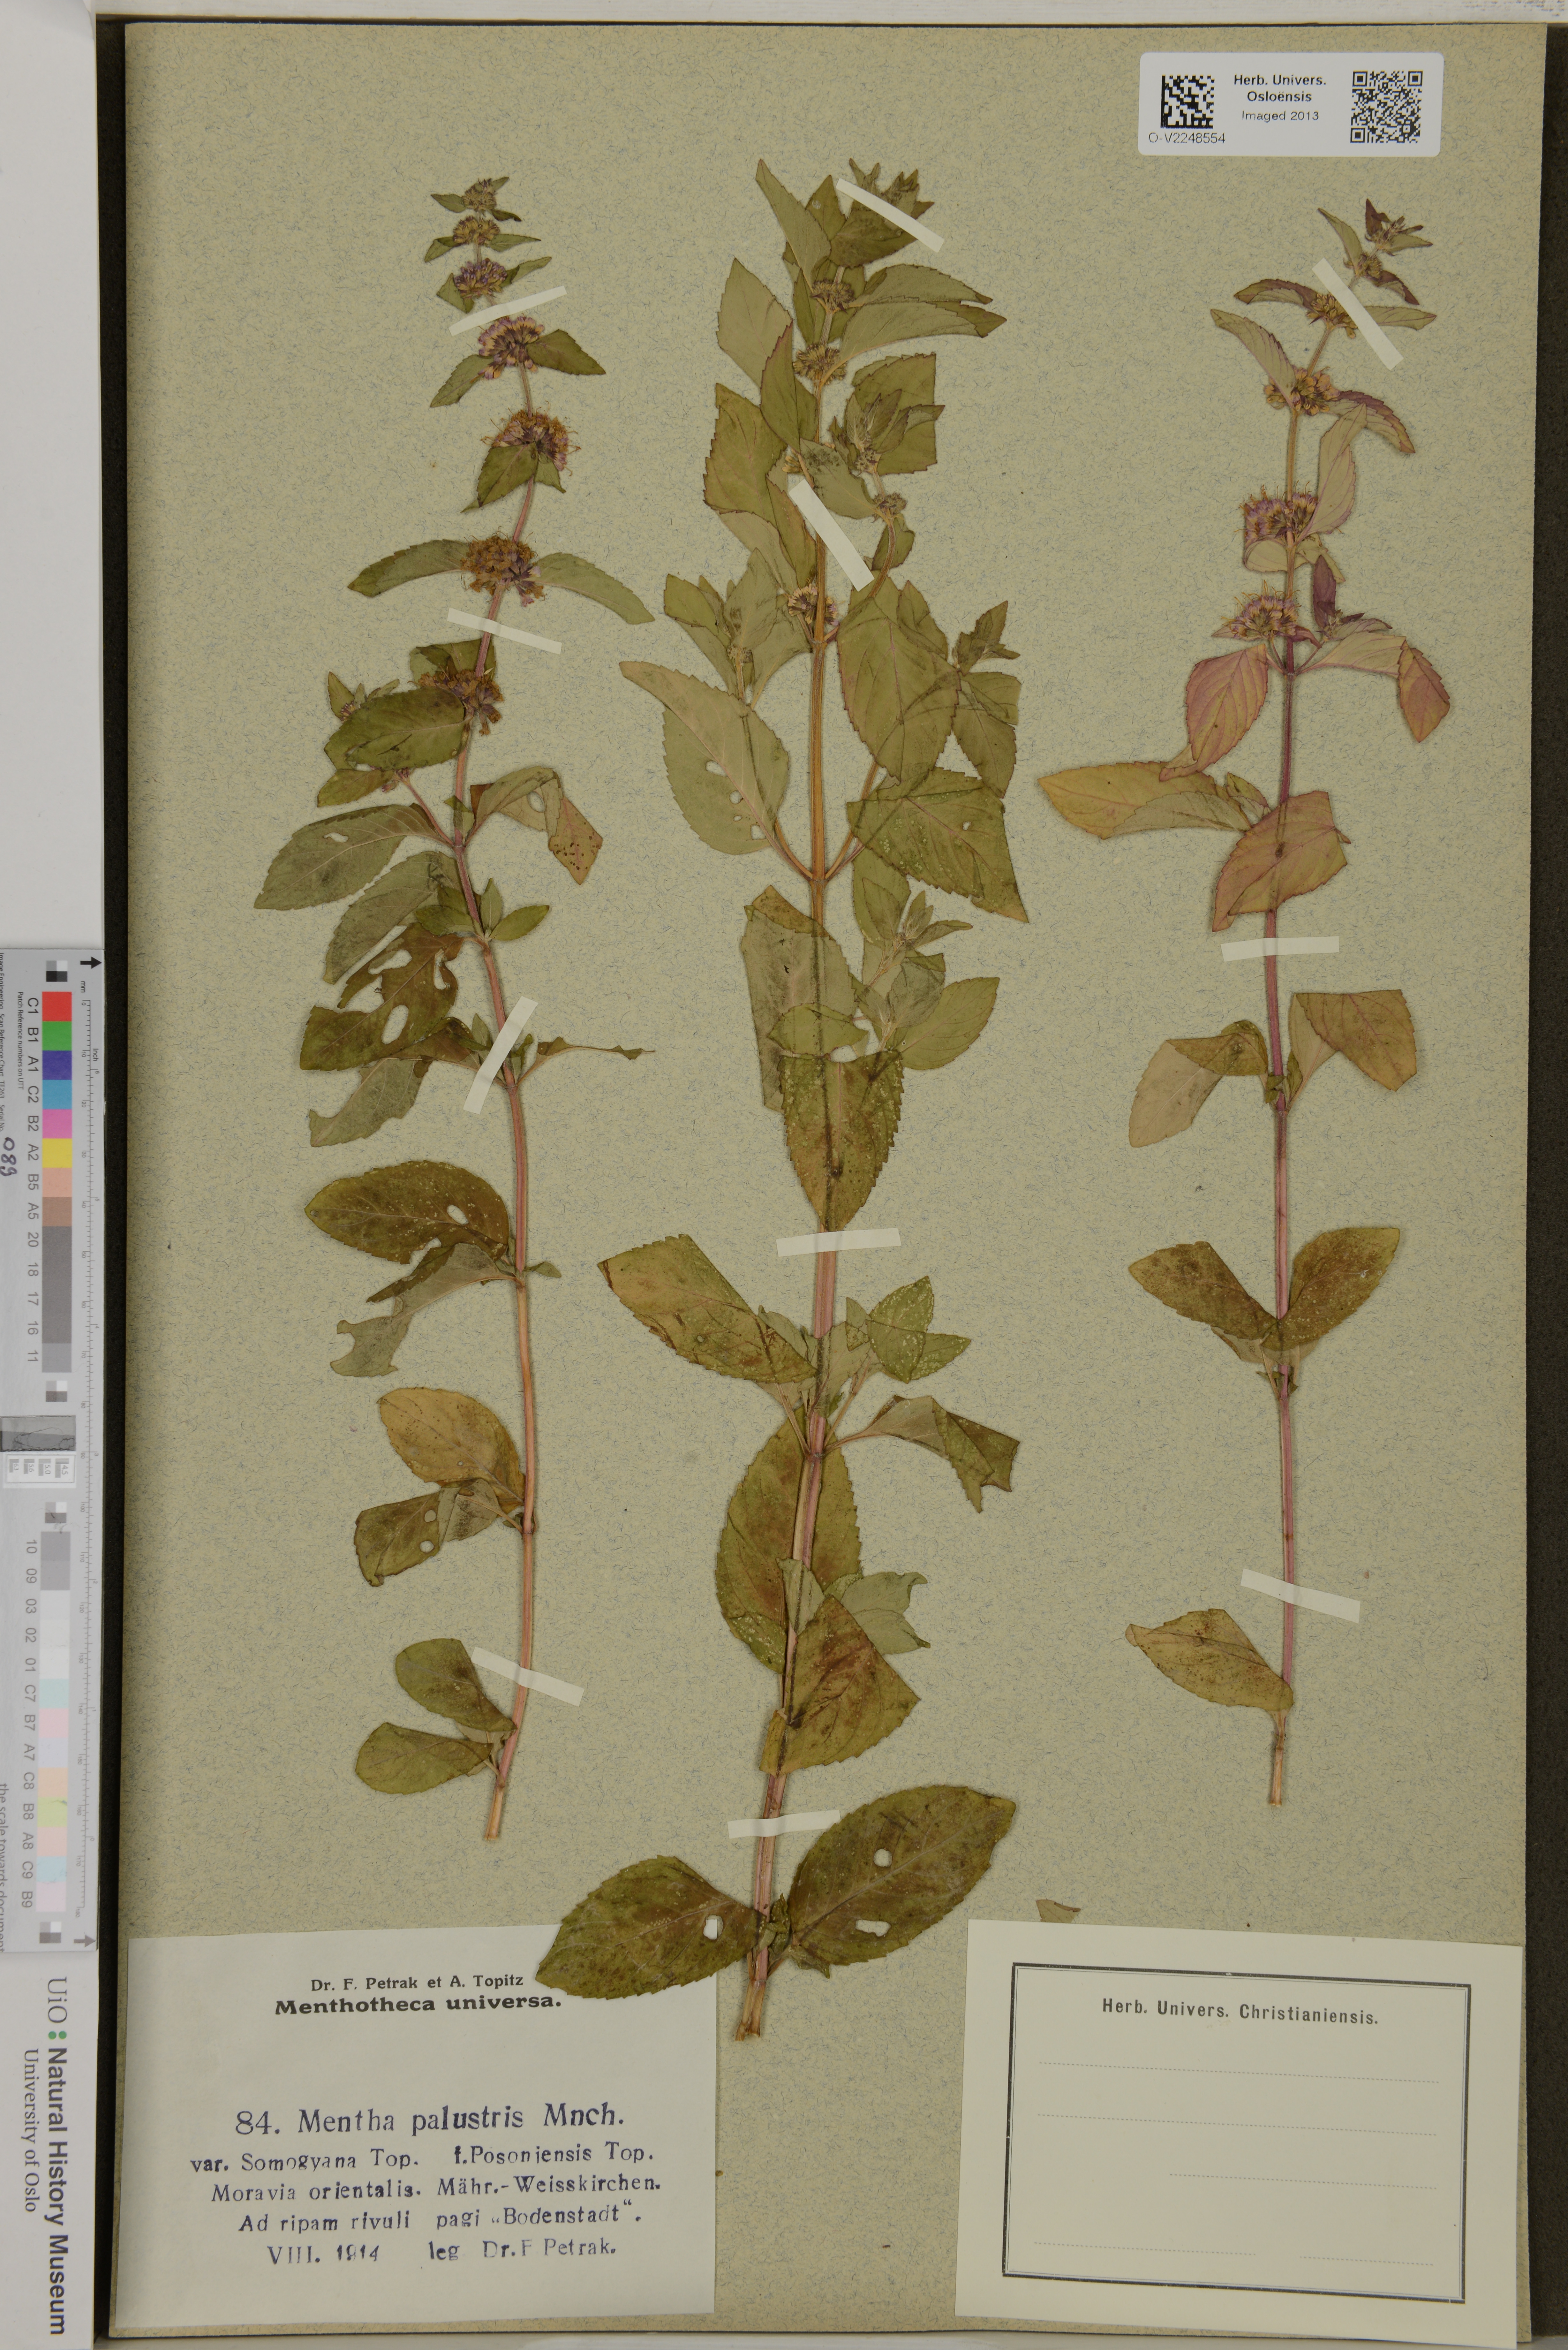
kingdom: Plantae
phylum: Tracheophyta
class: Magnoliopsida
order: Lamiales
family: Lamiaceae
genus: Mentha
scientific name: Mentha
